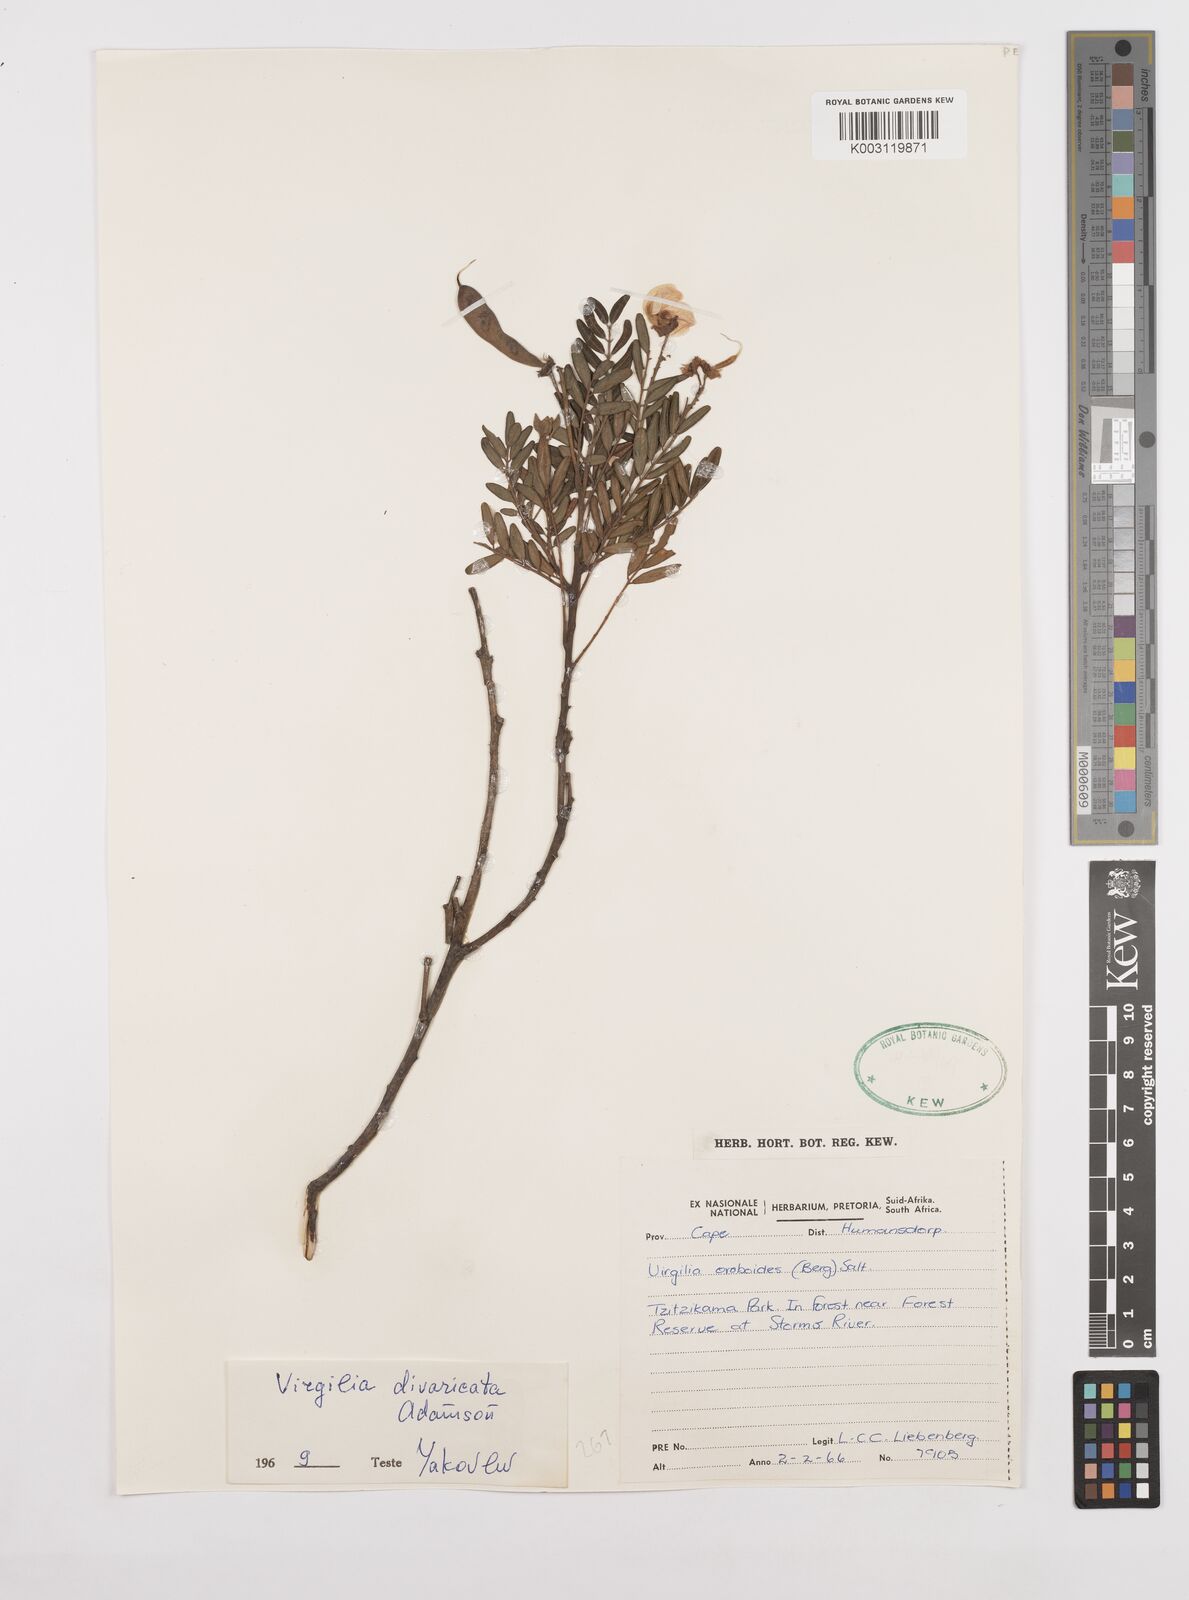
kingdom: Plantae
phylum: Tracheophyta
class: Magnoliopsida
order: Fabales
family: Fabaceae
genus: Virgilia
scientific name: Virgilia divaricata
